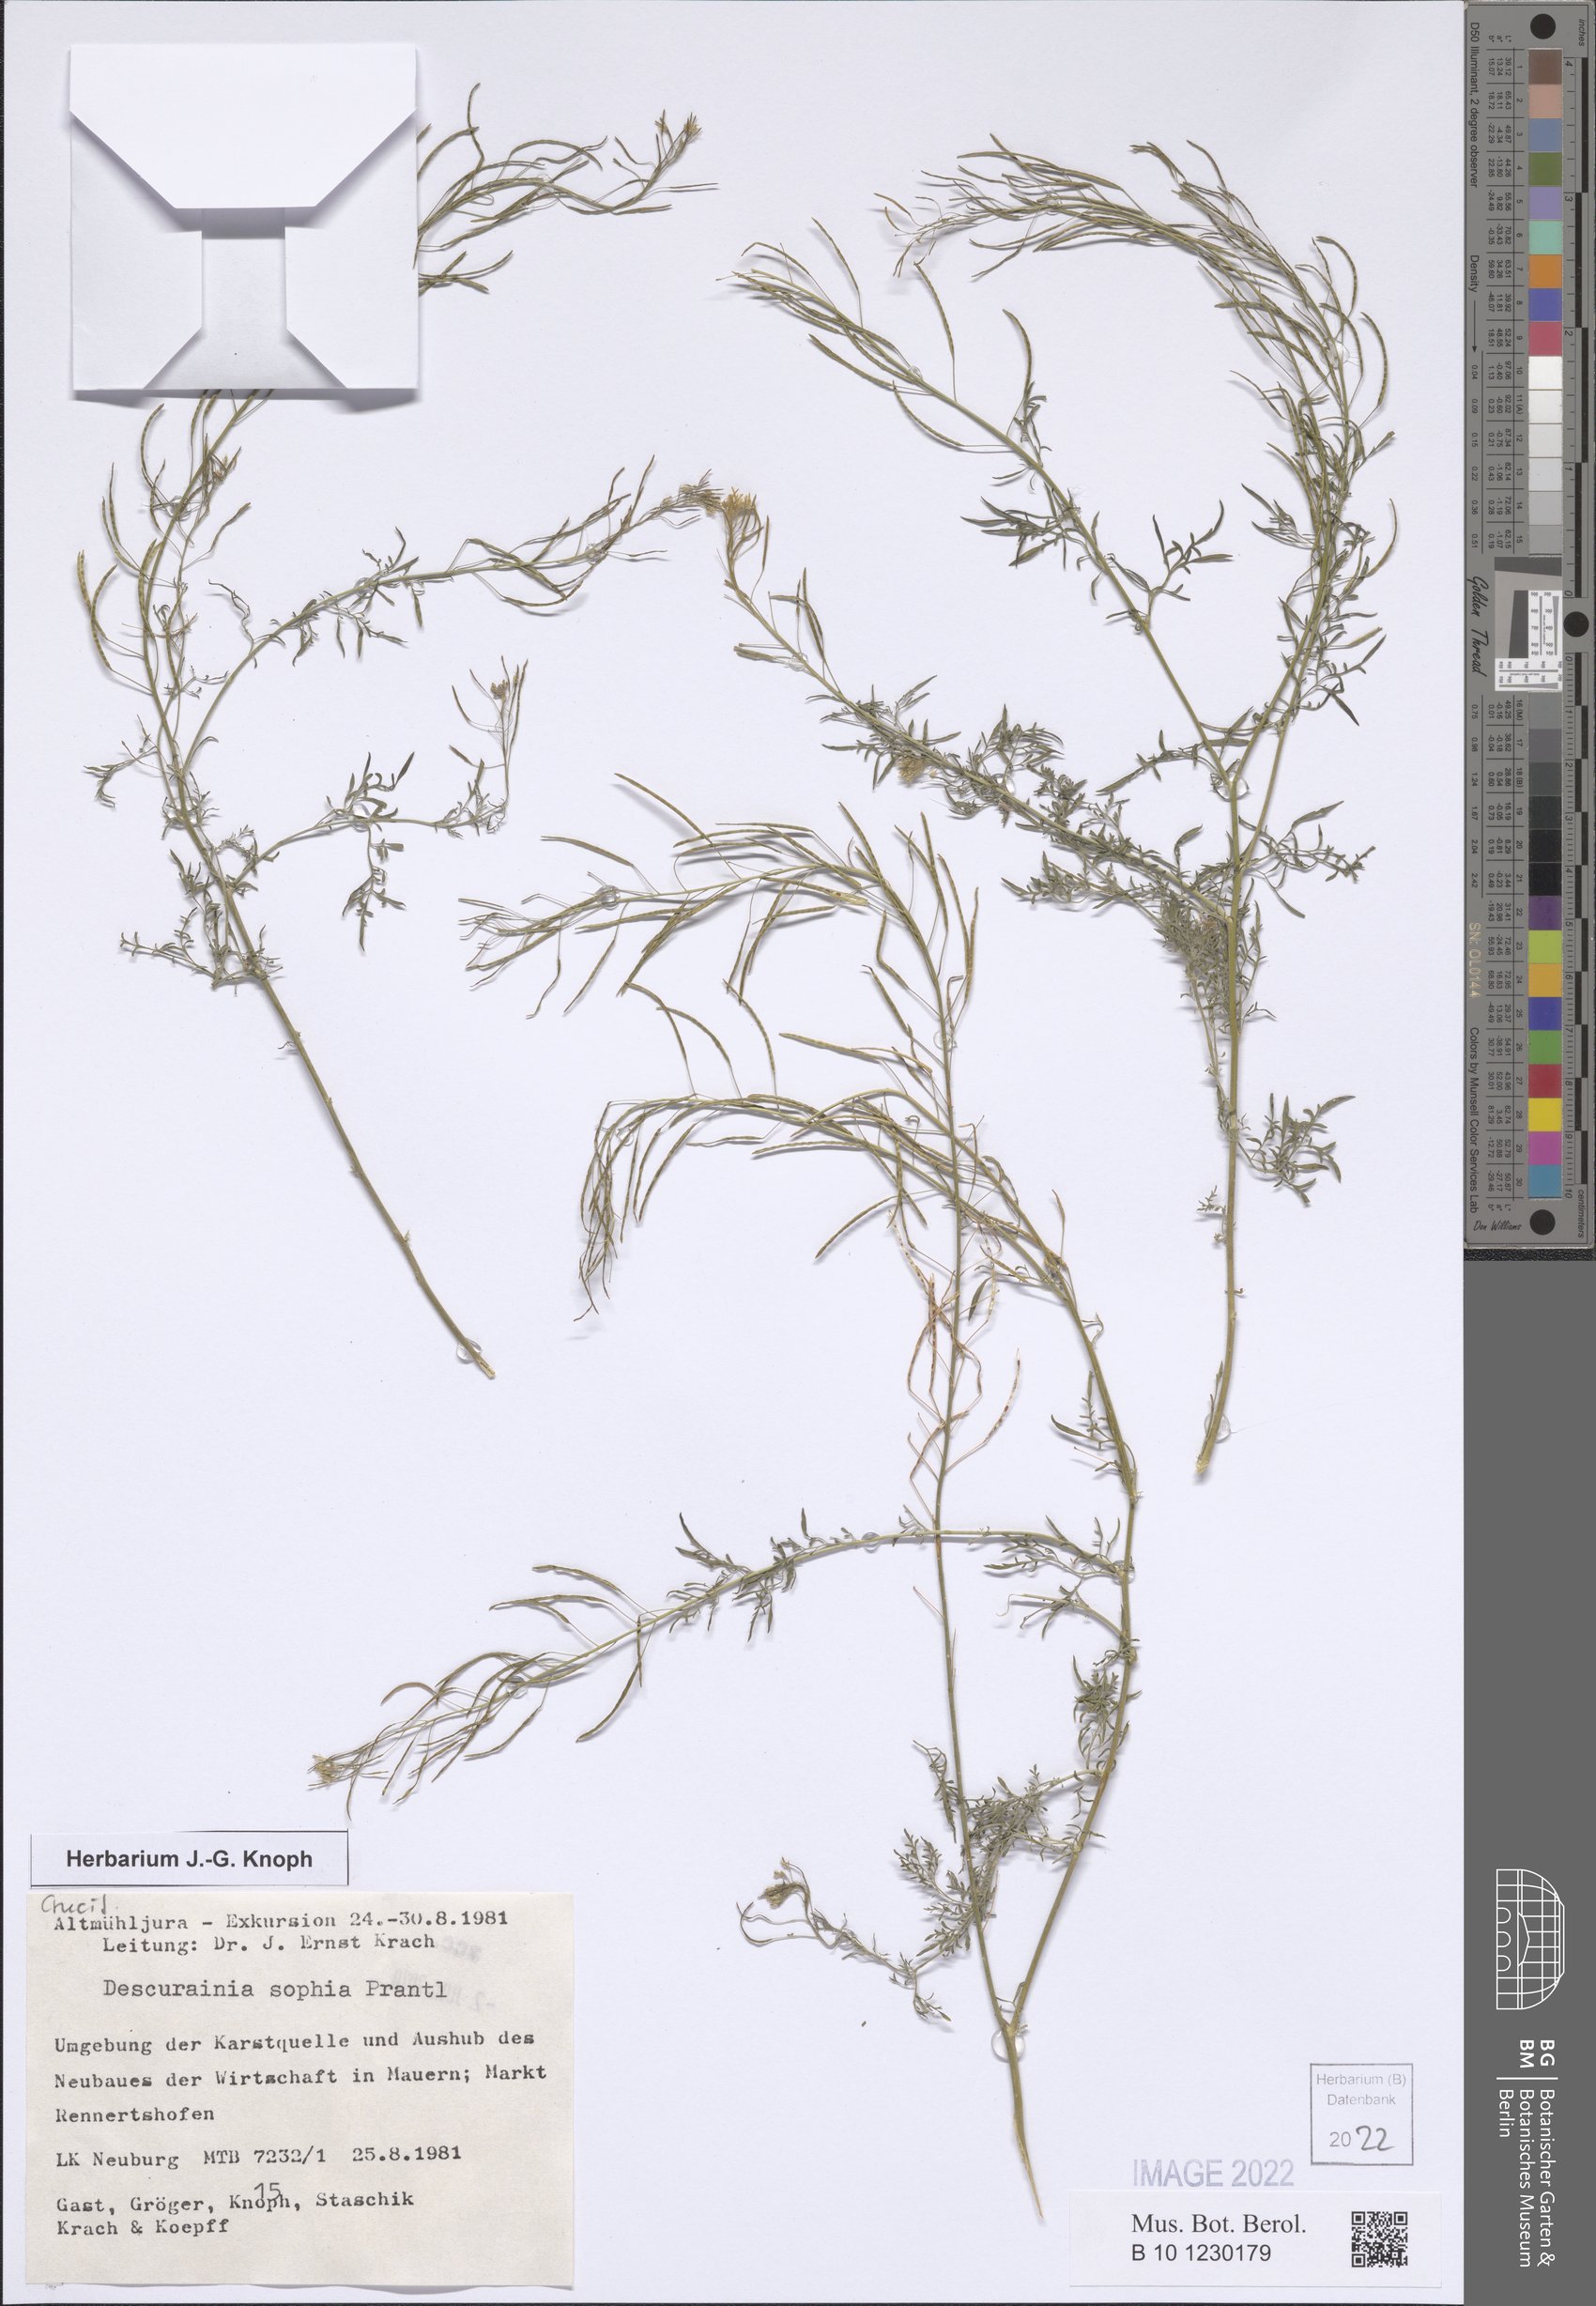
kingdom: Plantae
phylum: Tracheophyta
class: Magnoliopsida
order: Brassicales
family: Brassicaceae
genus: Descurainia
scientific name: Descurainia sophia
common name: Flixweed
